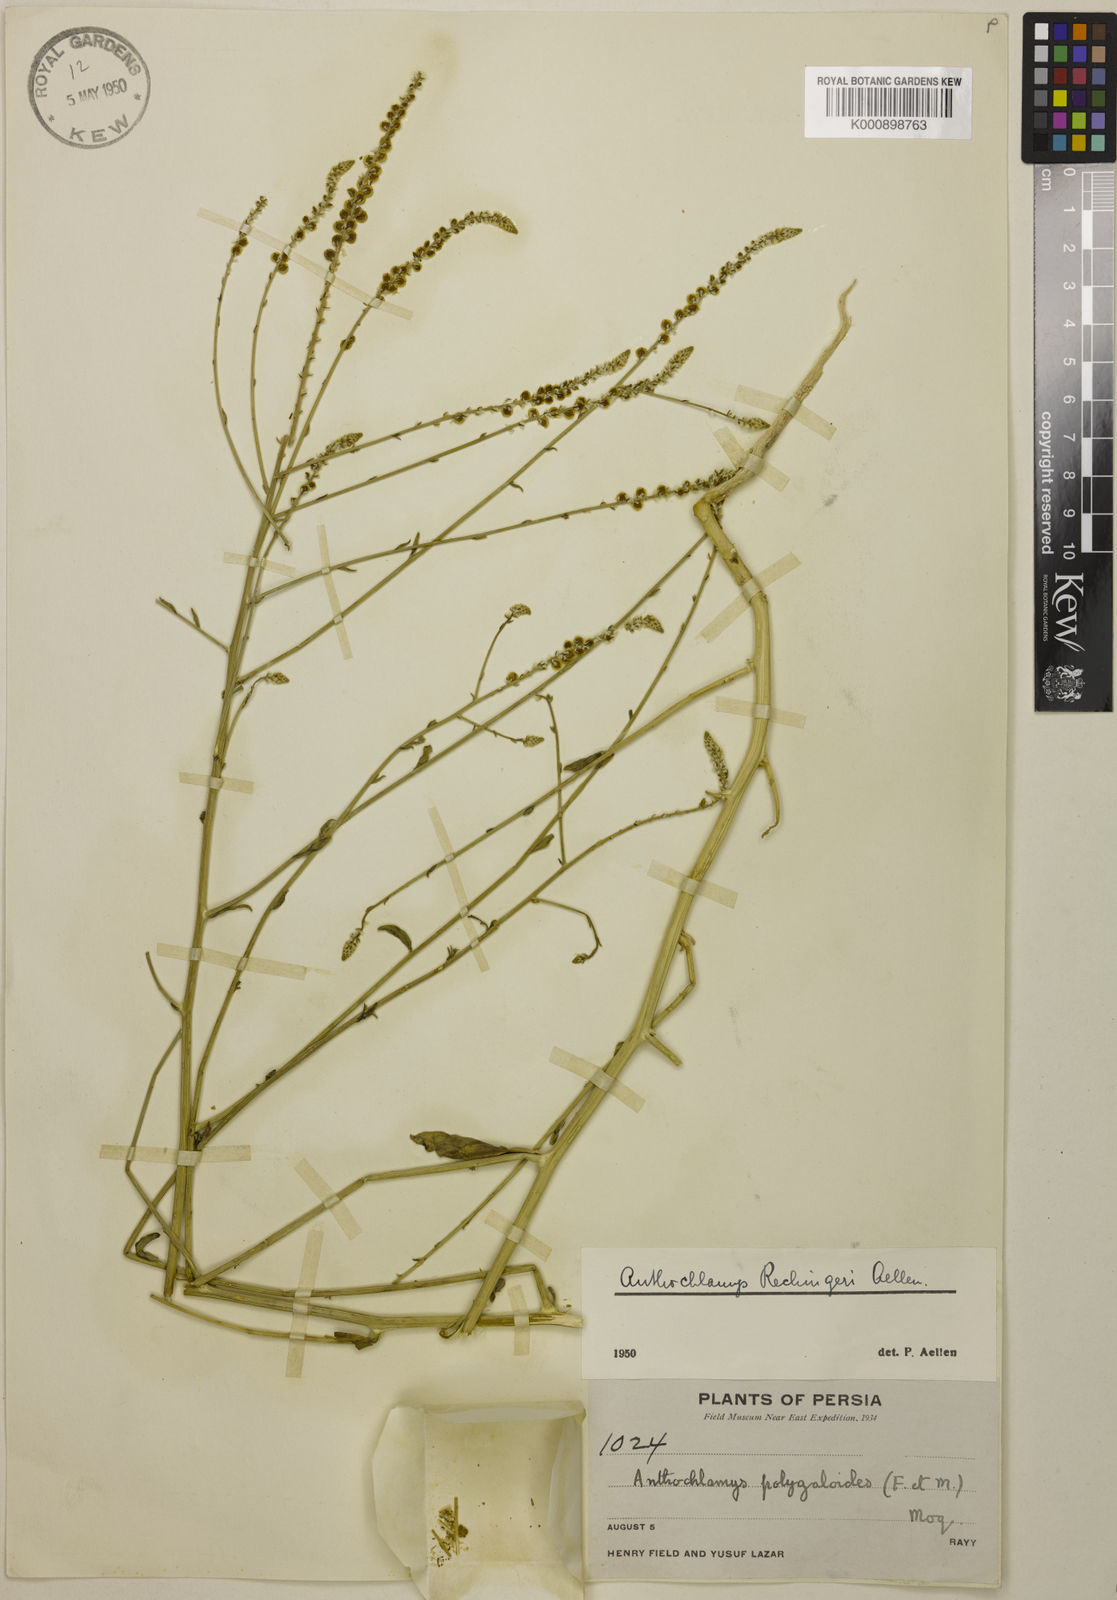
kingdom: Plantae
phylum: Tracheophyta
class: Magnoliopsida
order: Caryophyllales
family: Amaranthaceae
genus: Anthochlamys
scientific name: Anthochlamys polygaloides
